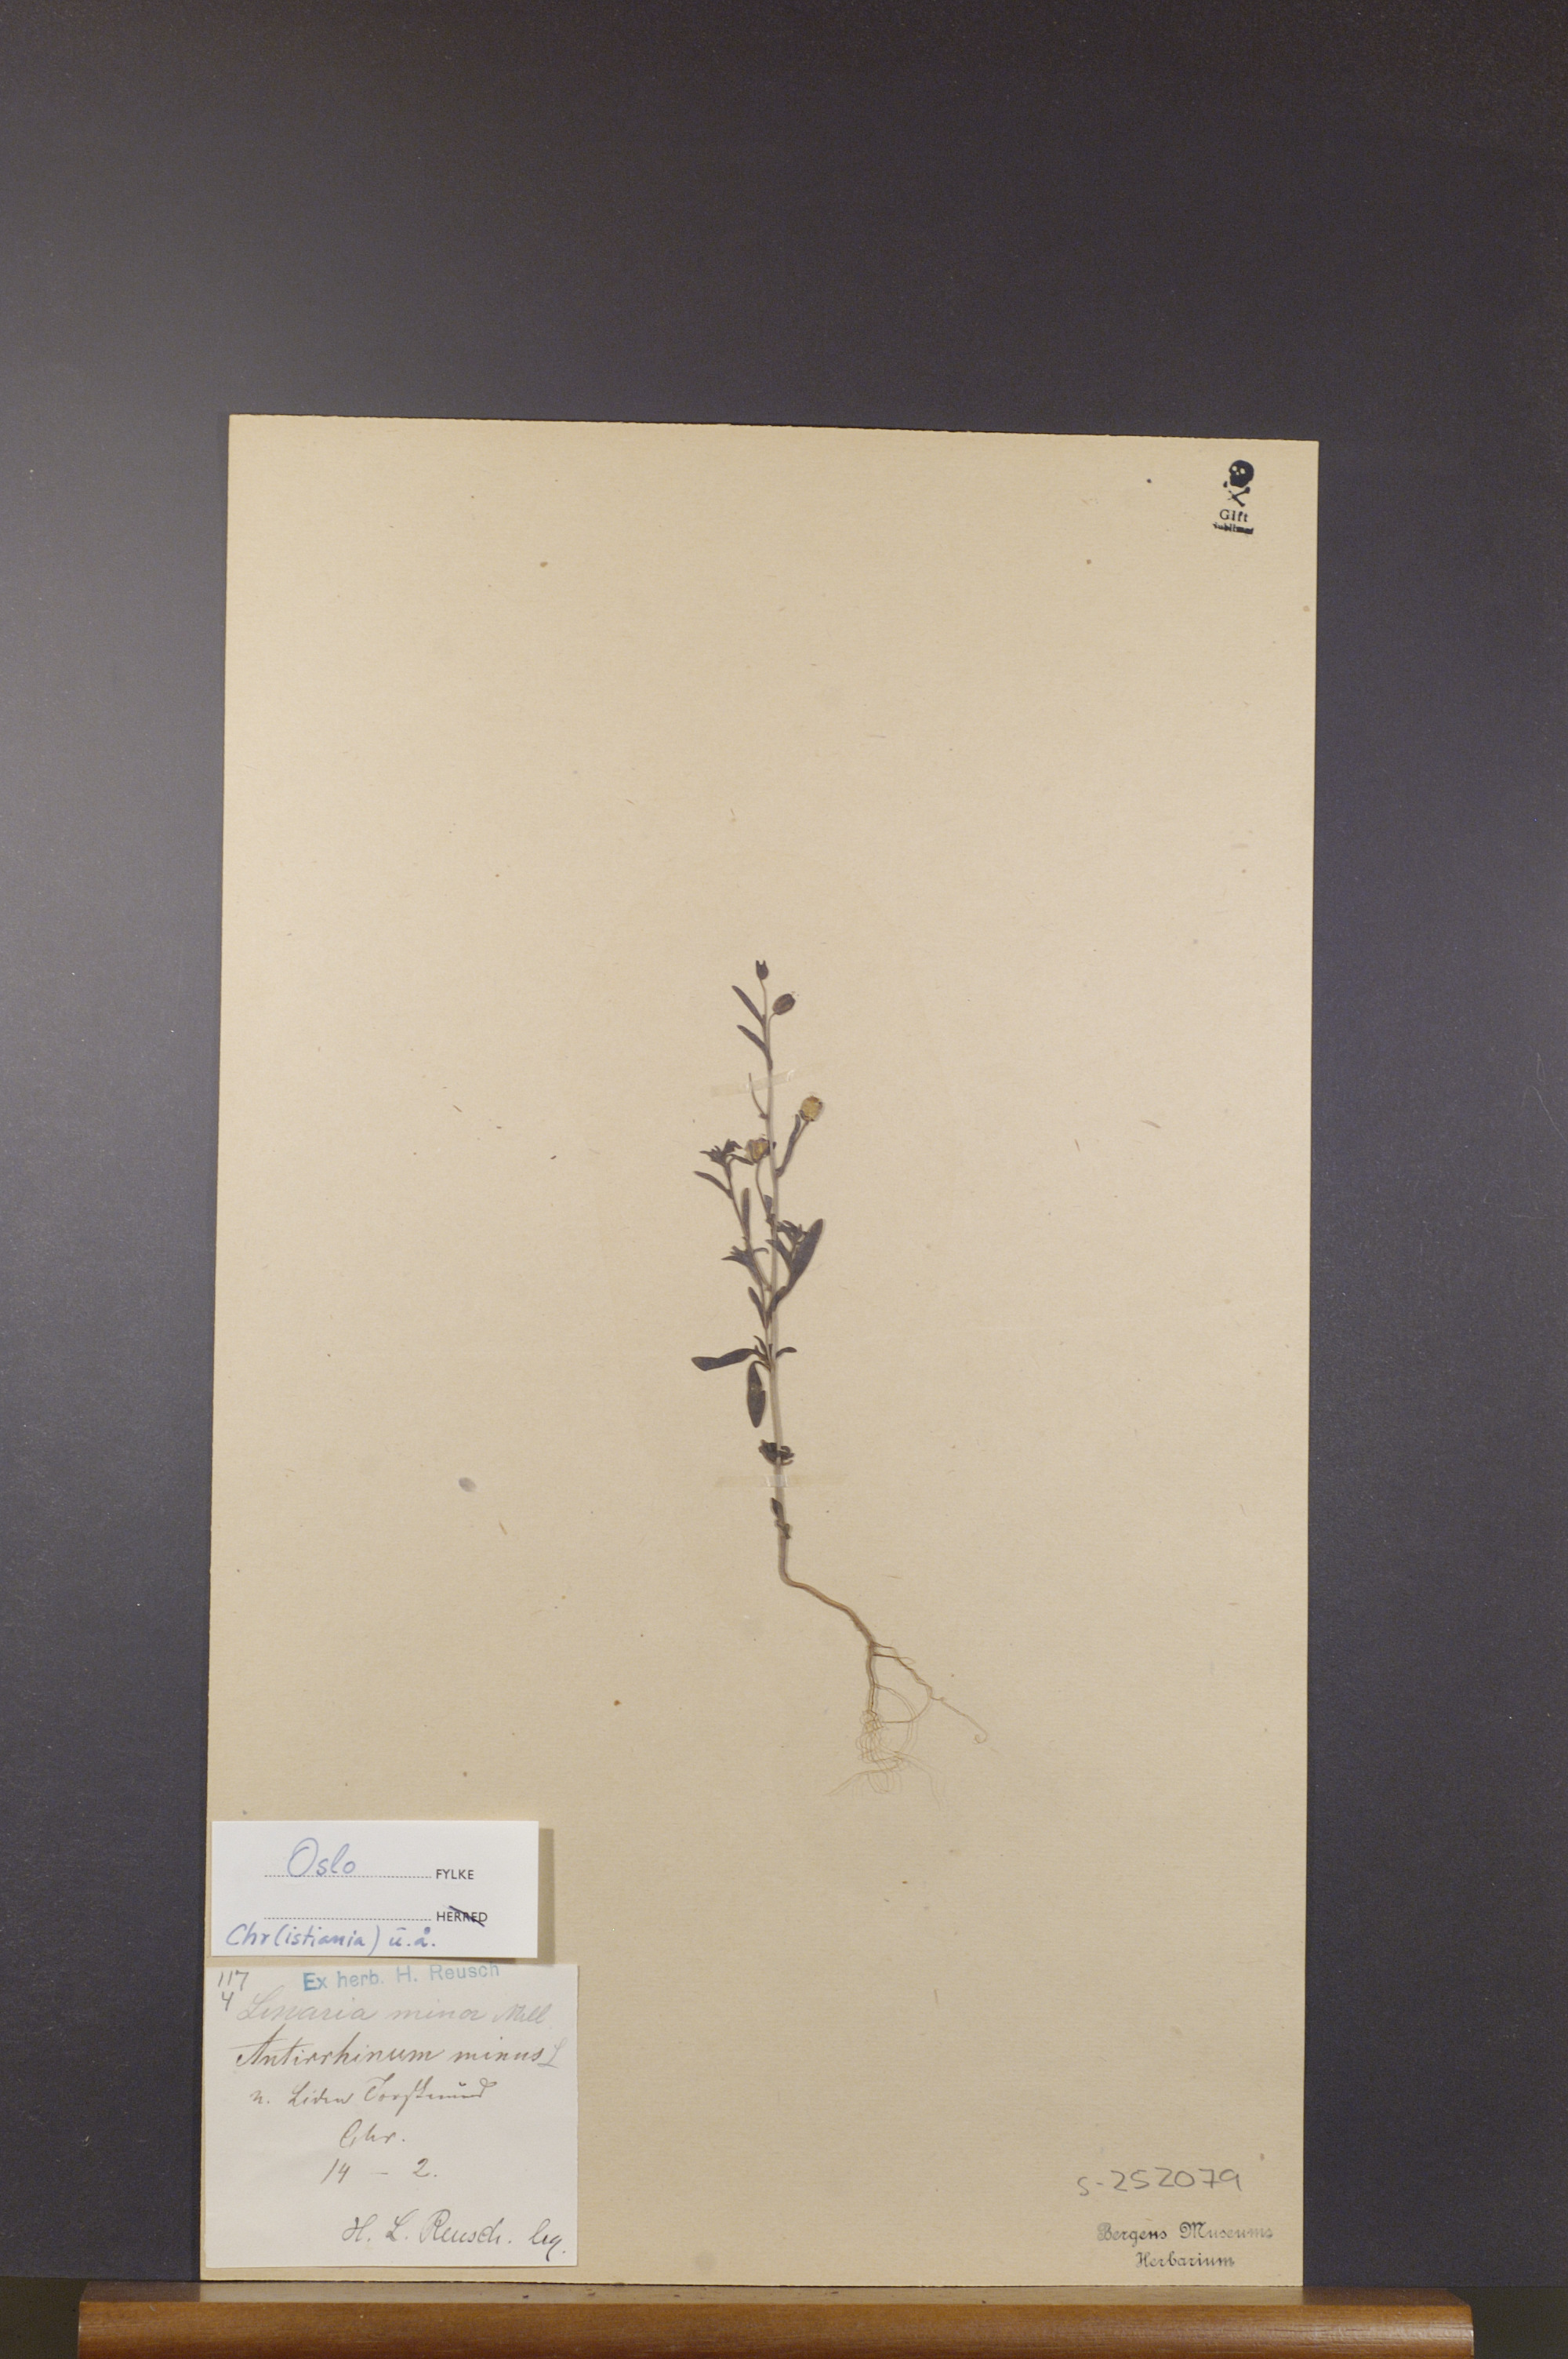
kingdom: Plantae
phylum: Tracheophyta
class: Magnoliopsida
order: Lamiales
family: Plantaginaceae
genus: Chaenorhinum
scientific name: Chaenorhinum minus
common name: Dwarf snapdragon
